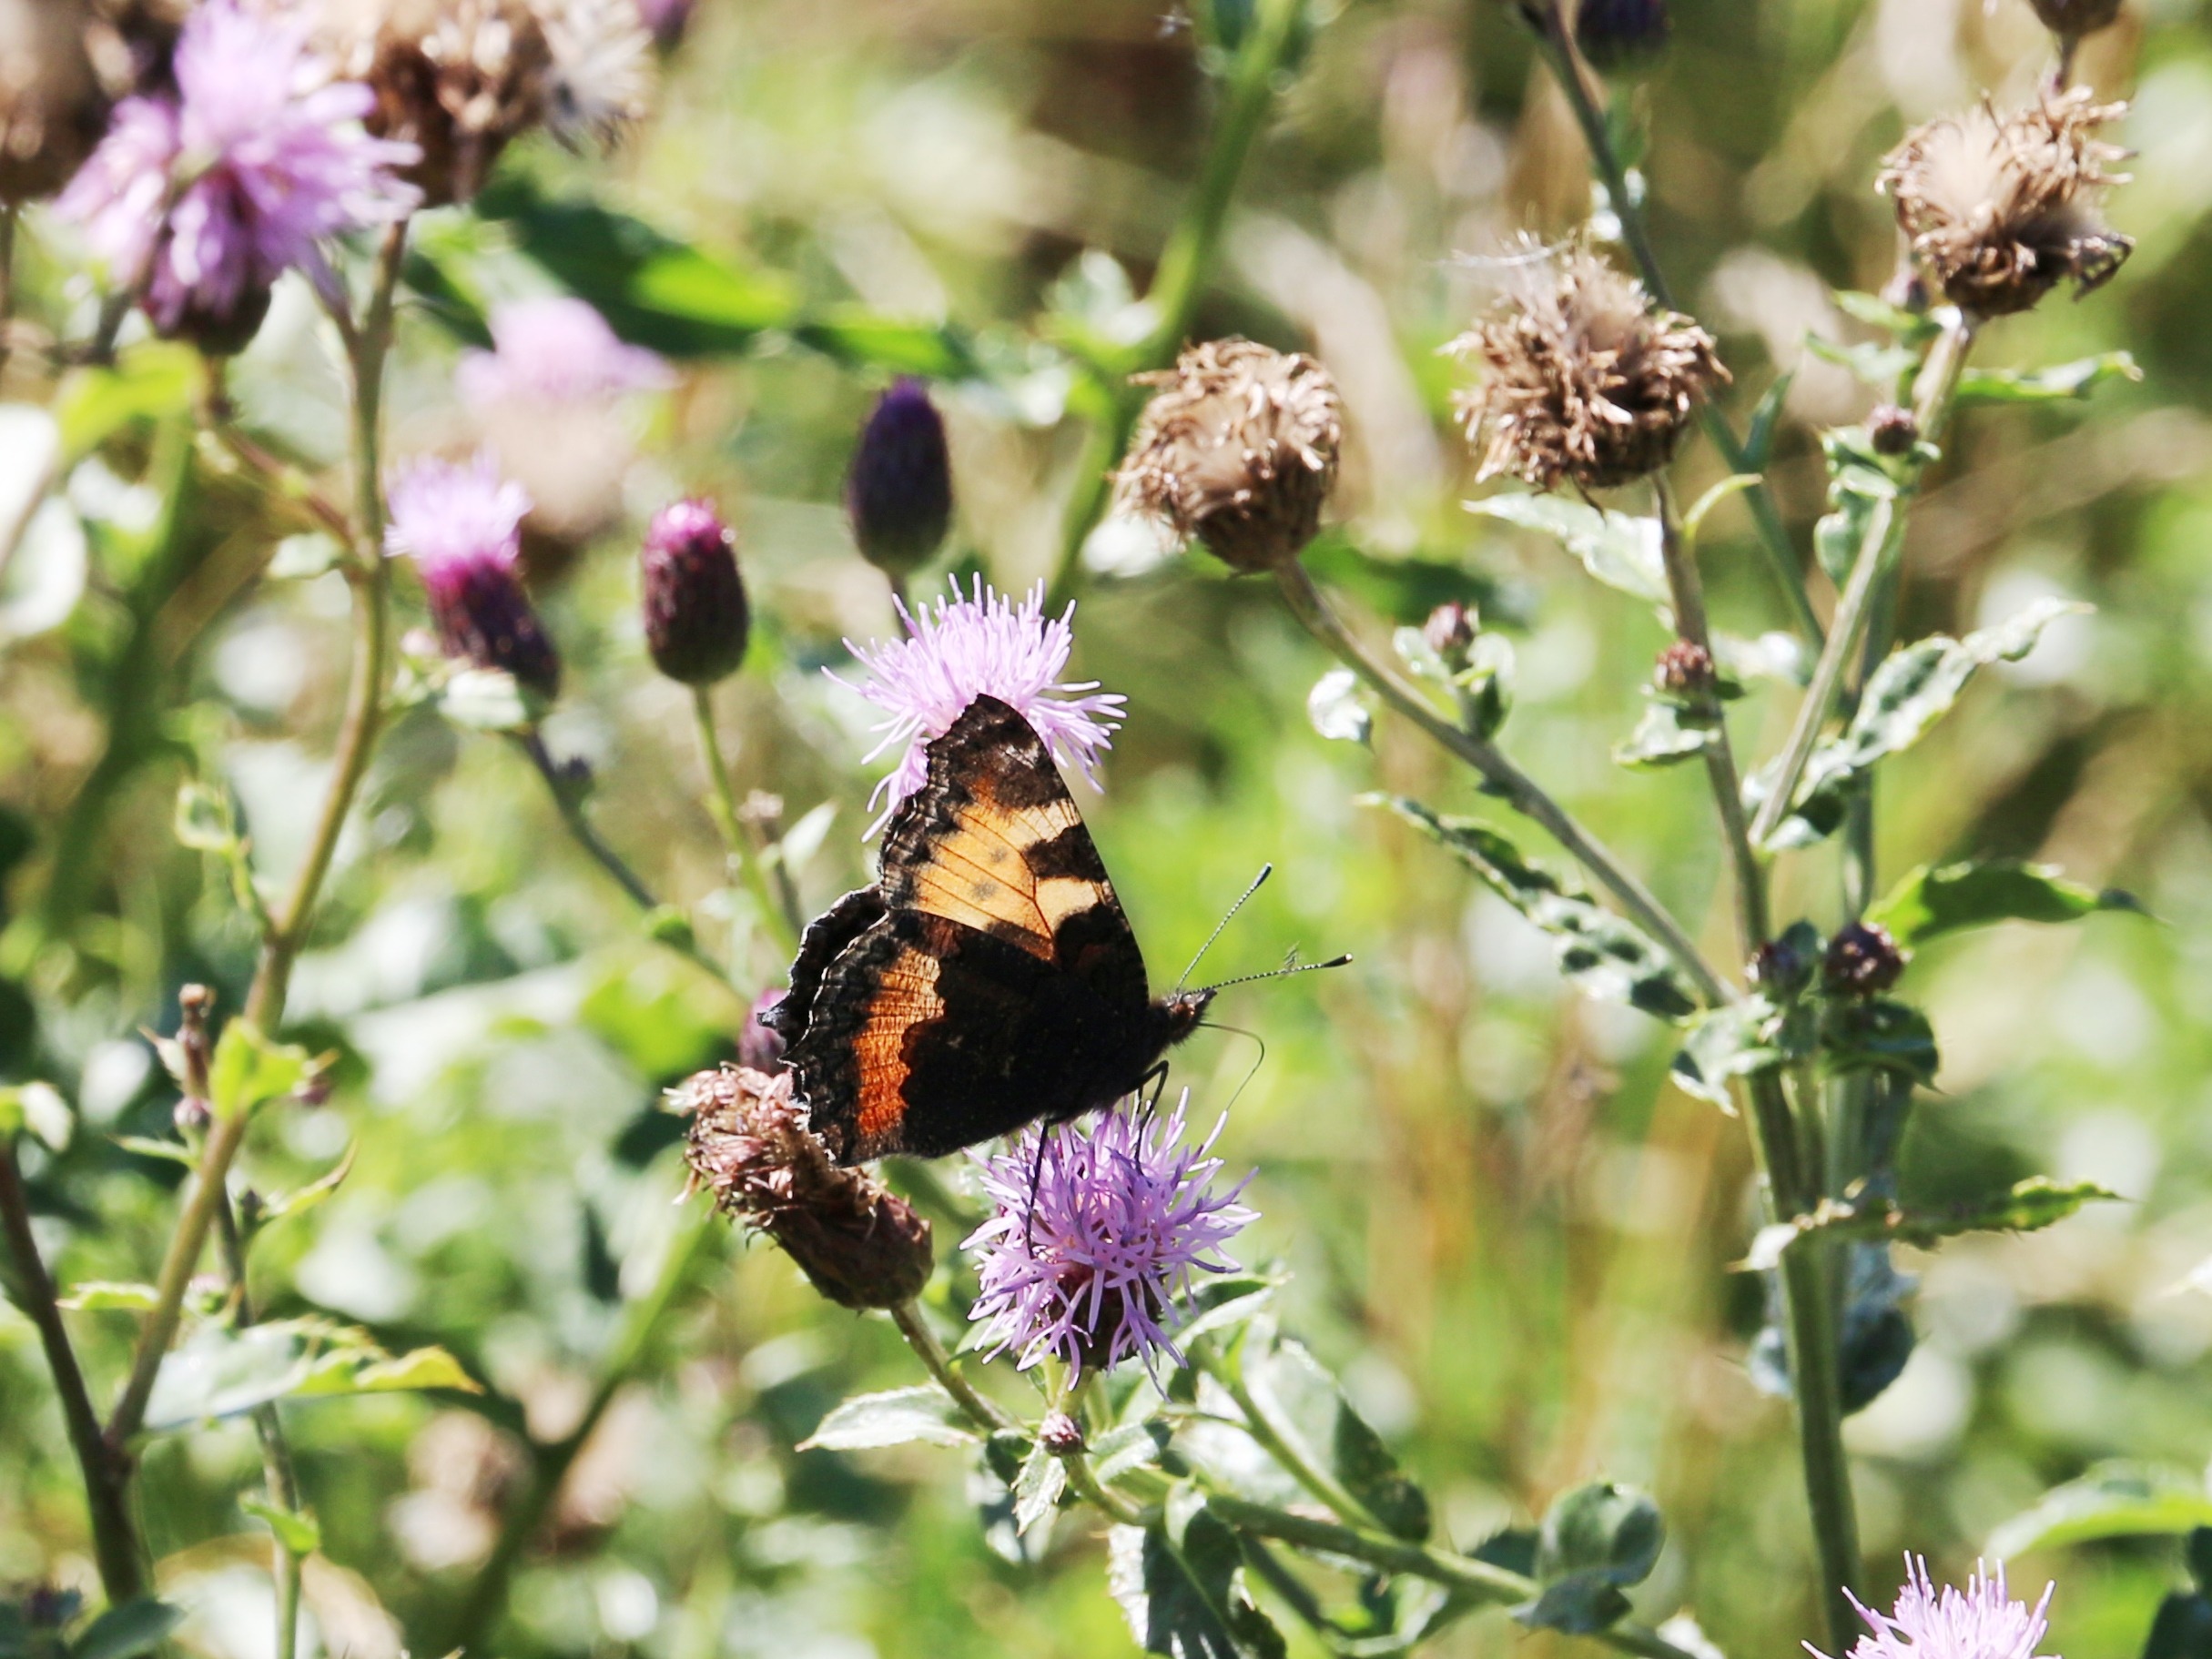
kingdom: Animalia
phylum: Arthropoda
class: Insecta
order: Lepidoptera
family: Nymphalidae
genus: Aglais
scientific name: Aglais urticae
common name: Nældens takvinge
